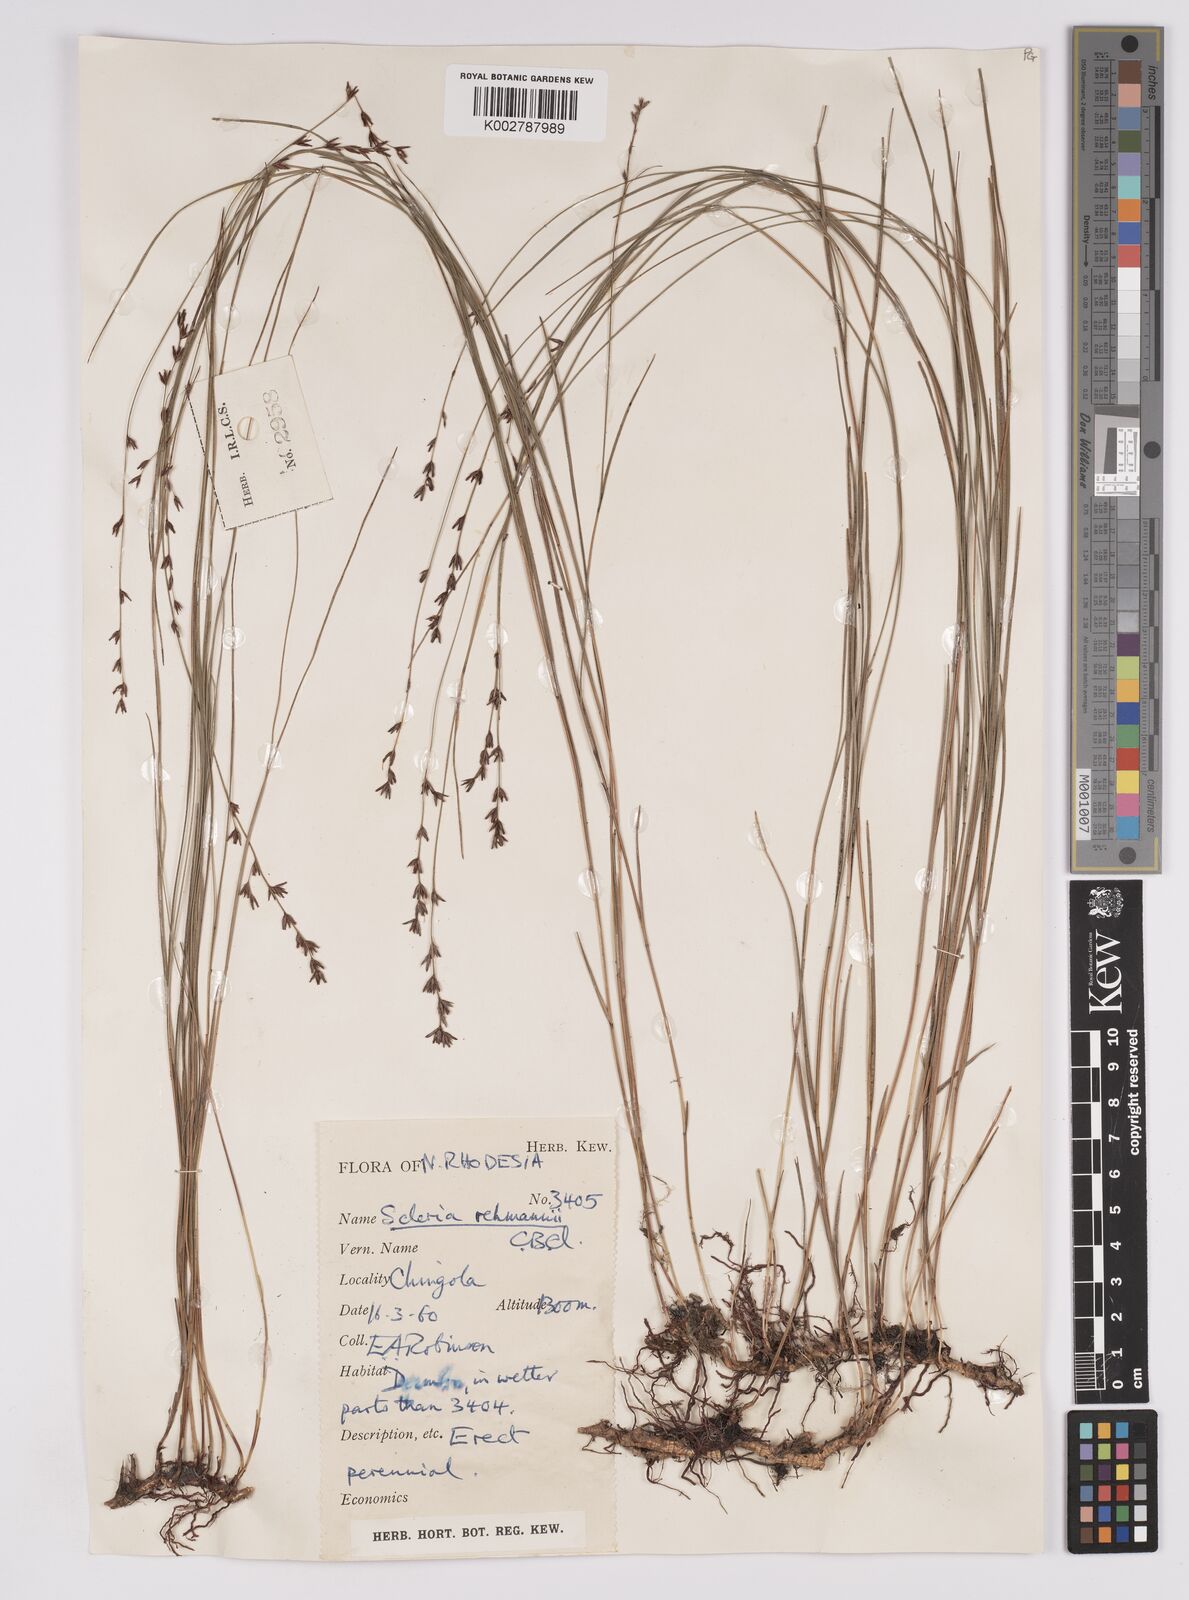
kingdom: Plantae
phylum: Tracheophyta
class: Liliopsida
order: Poales
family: Cyperaceae
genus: Scleria
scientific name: Scleria rehmannii
